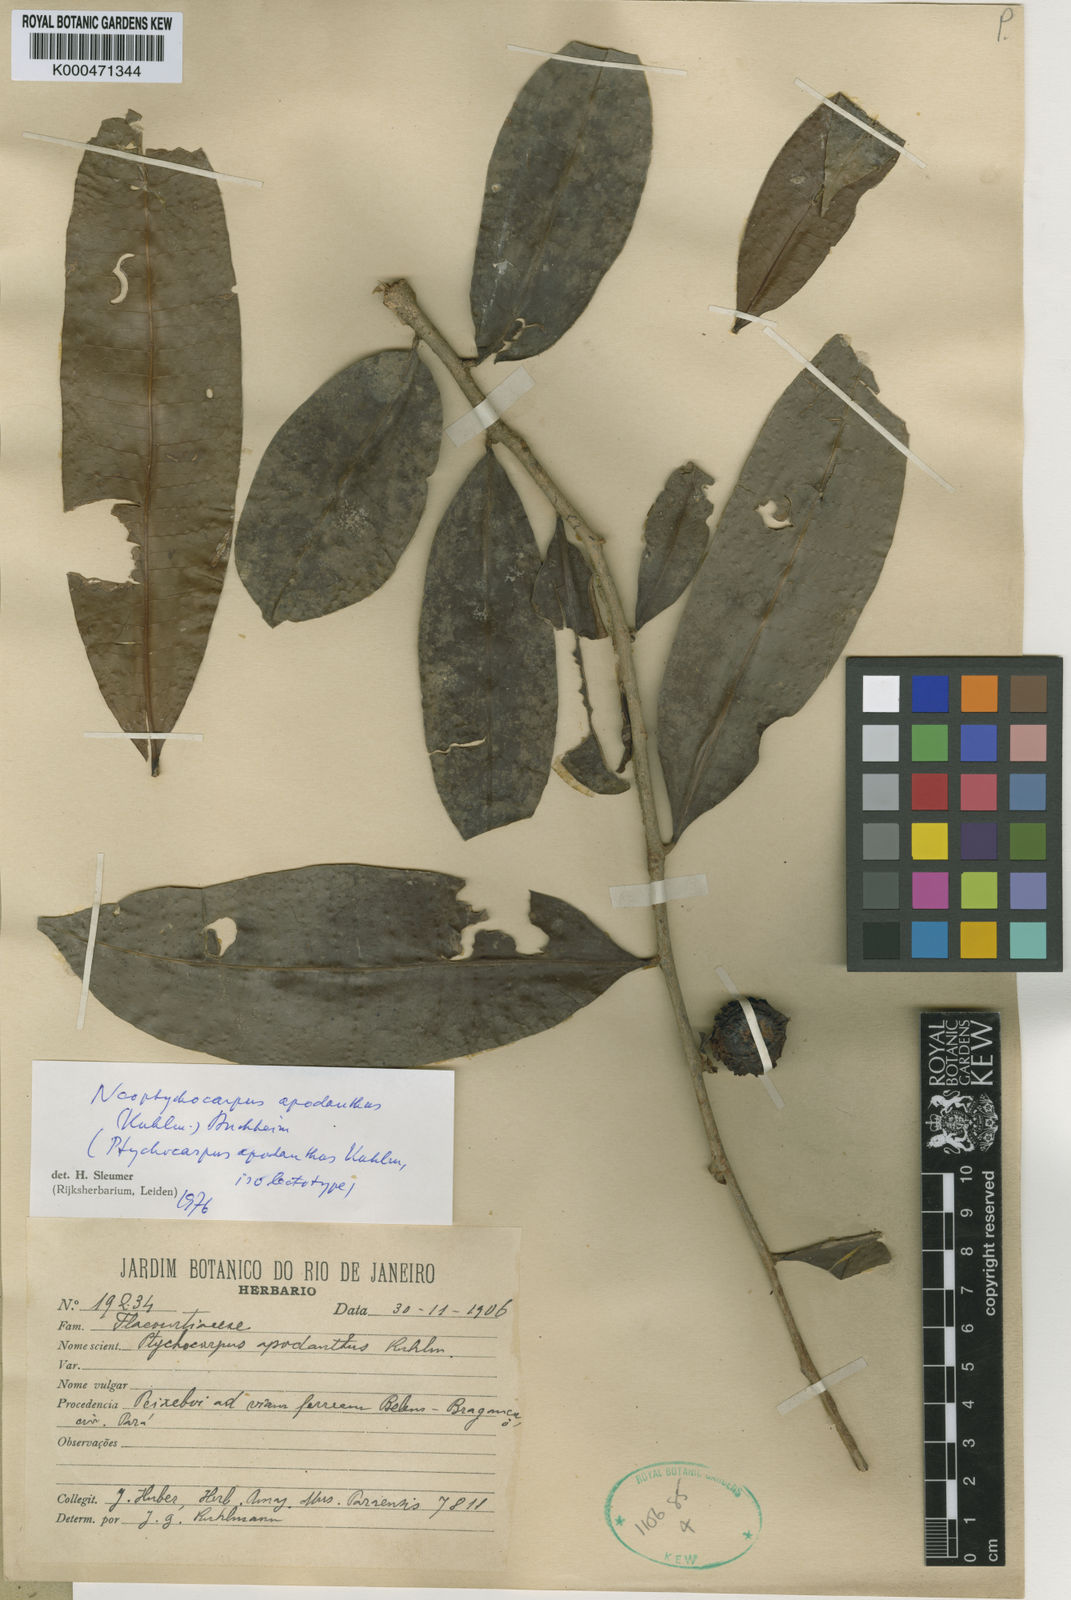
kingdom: Plantae
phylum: Tracheophyta
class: Magnoliopsida
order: Malpighiales
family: Salicaceae
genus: Casearia
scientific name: Casearia apodantha
